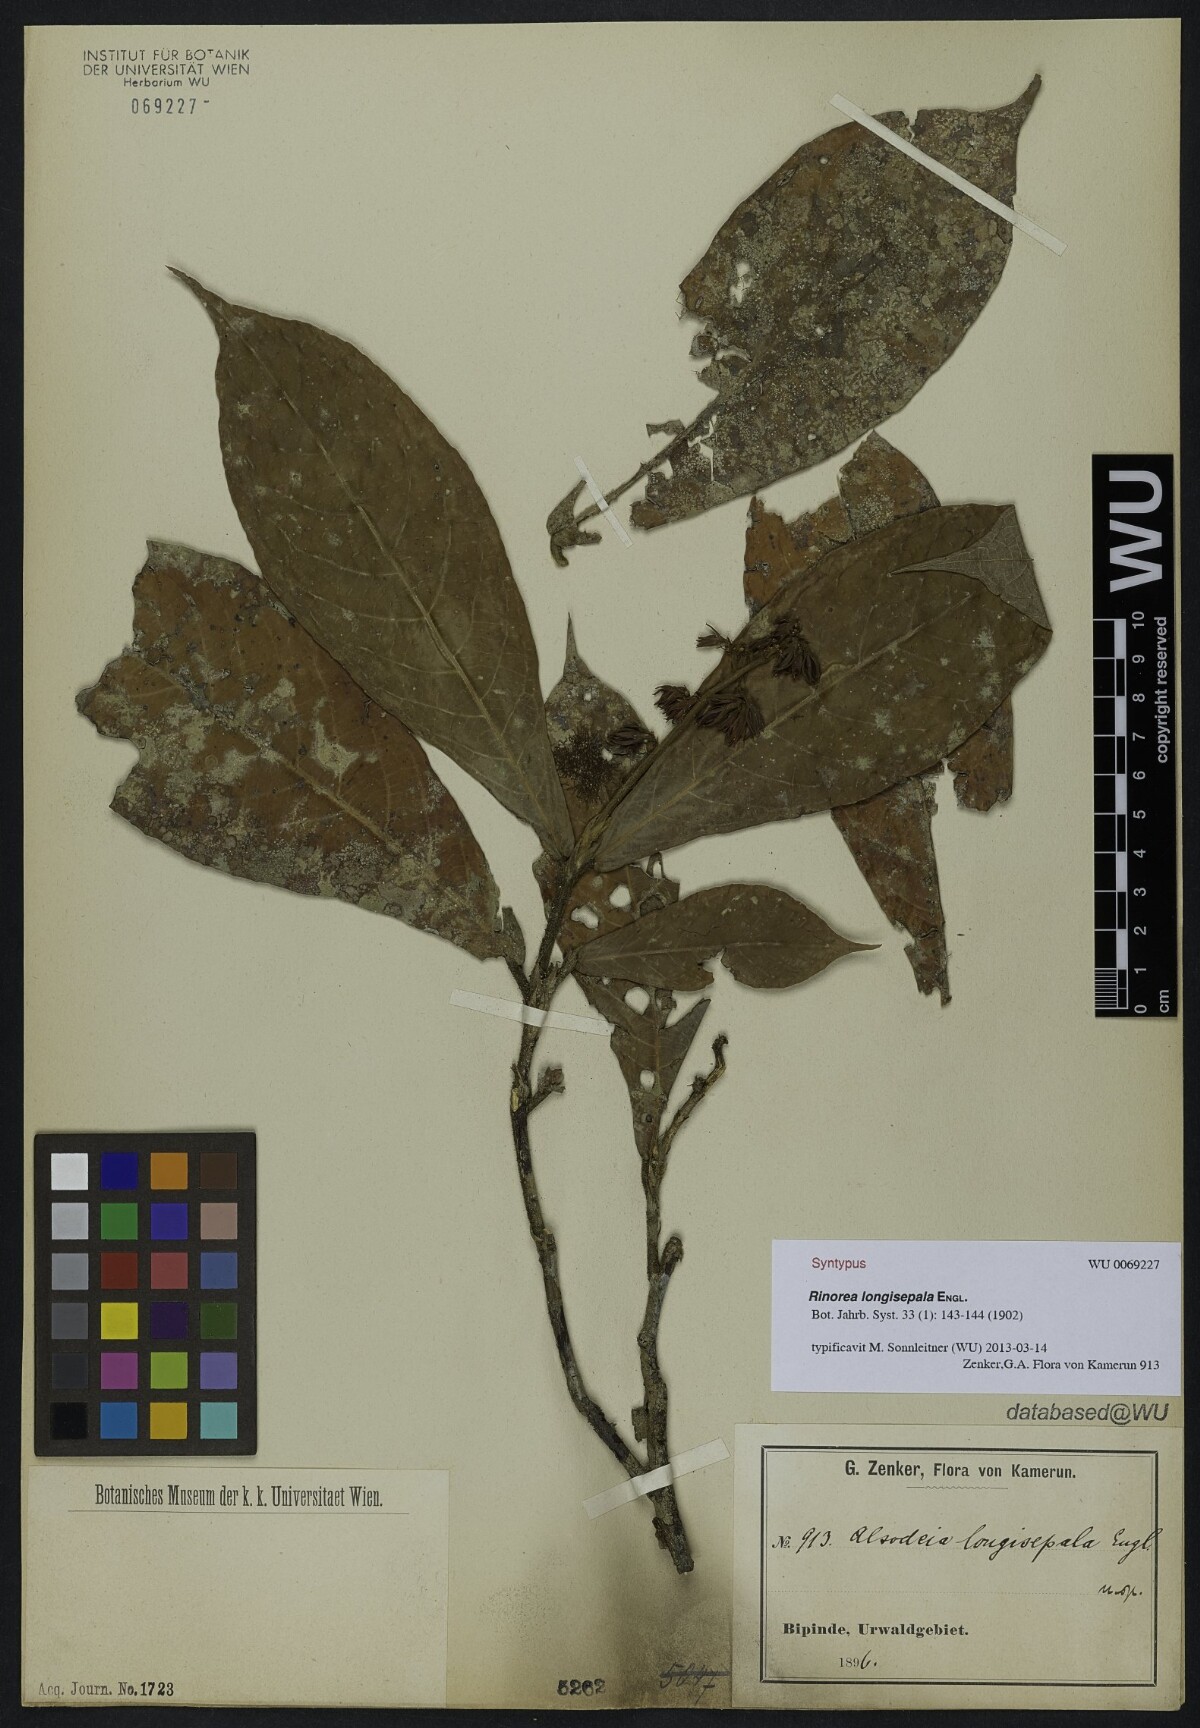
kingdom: Plantae
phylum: Tracheophyta
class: Magnoliopsida
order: Malpighiales
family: Violaceae
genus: Rinorea
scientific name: Rinorea longisepala
